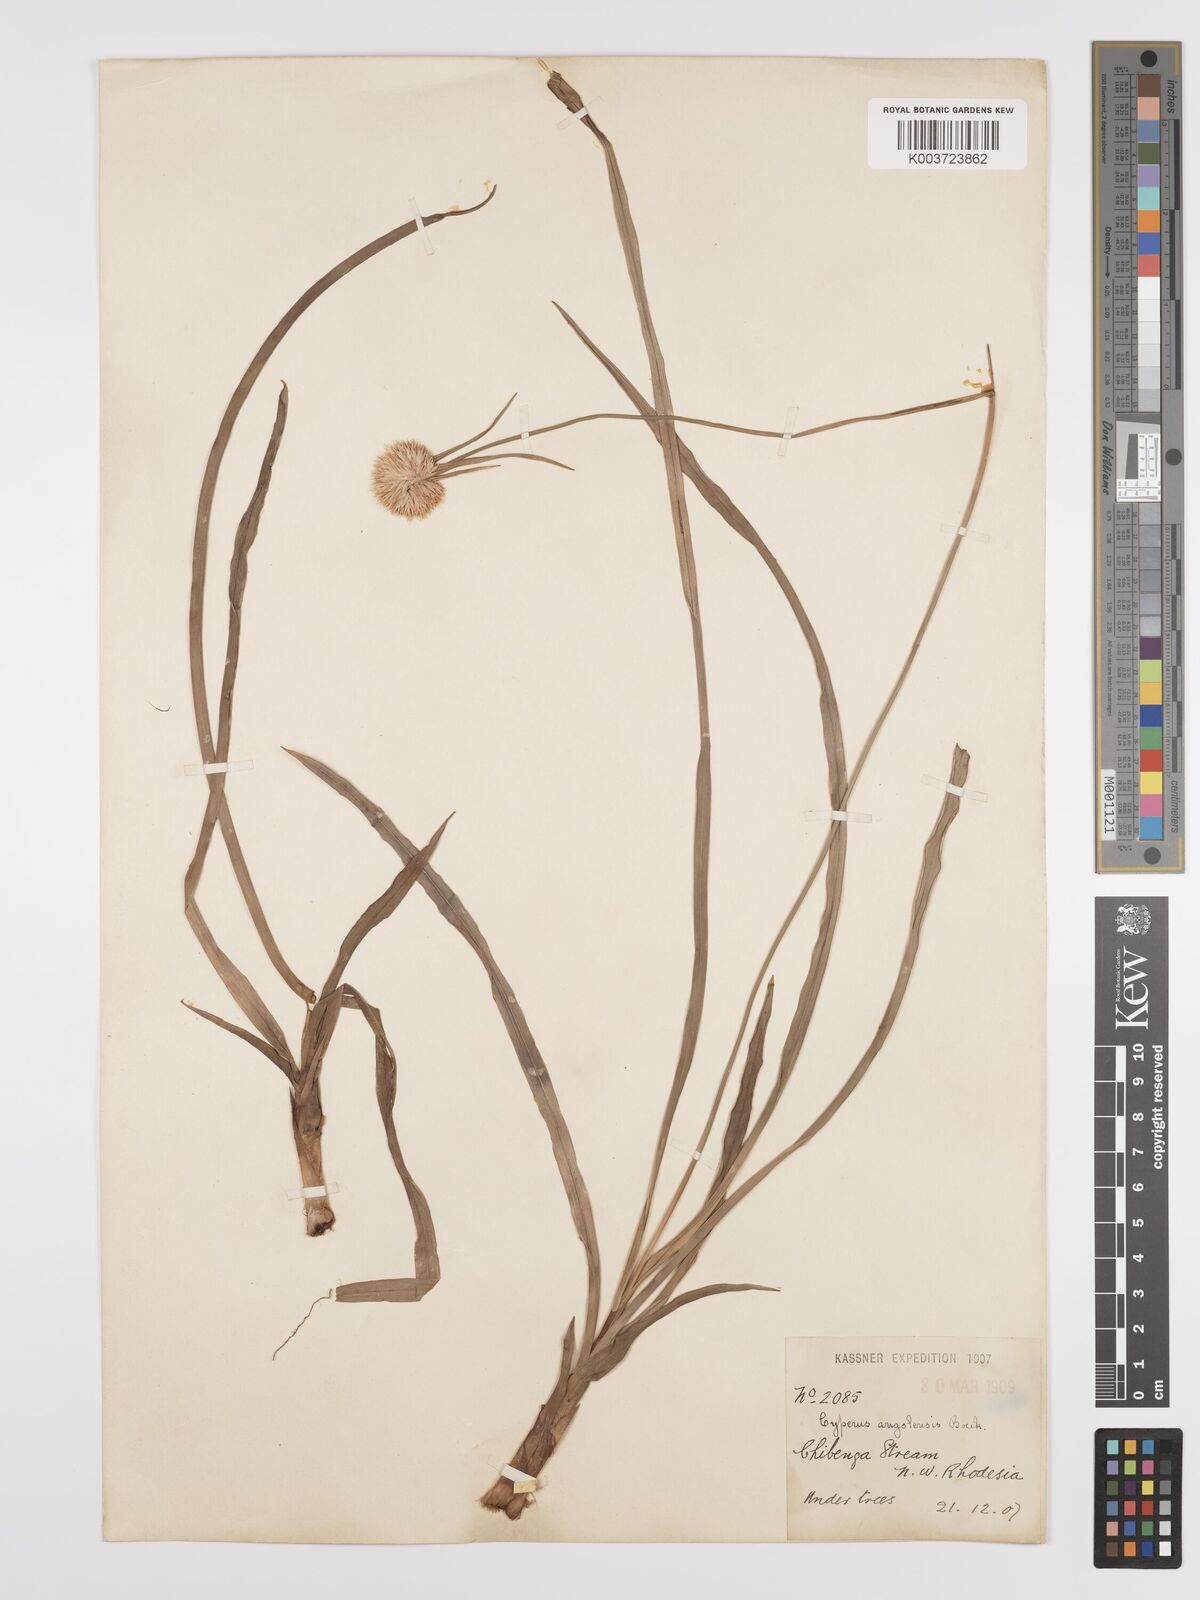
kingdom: Plantae
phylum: Tracheophyta
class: Liliopsida
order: Poales
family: Cyperaceae
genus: Cyperus
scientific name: Cyperus angolensis
